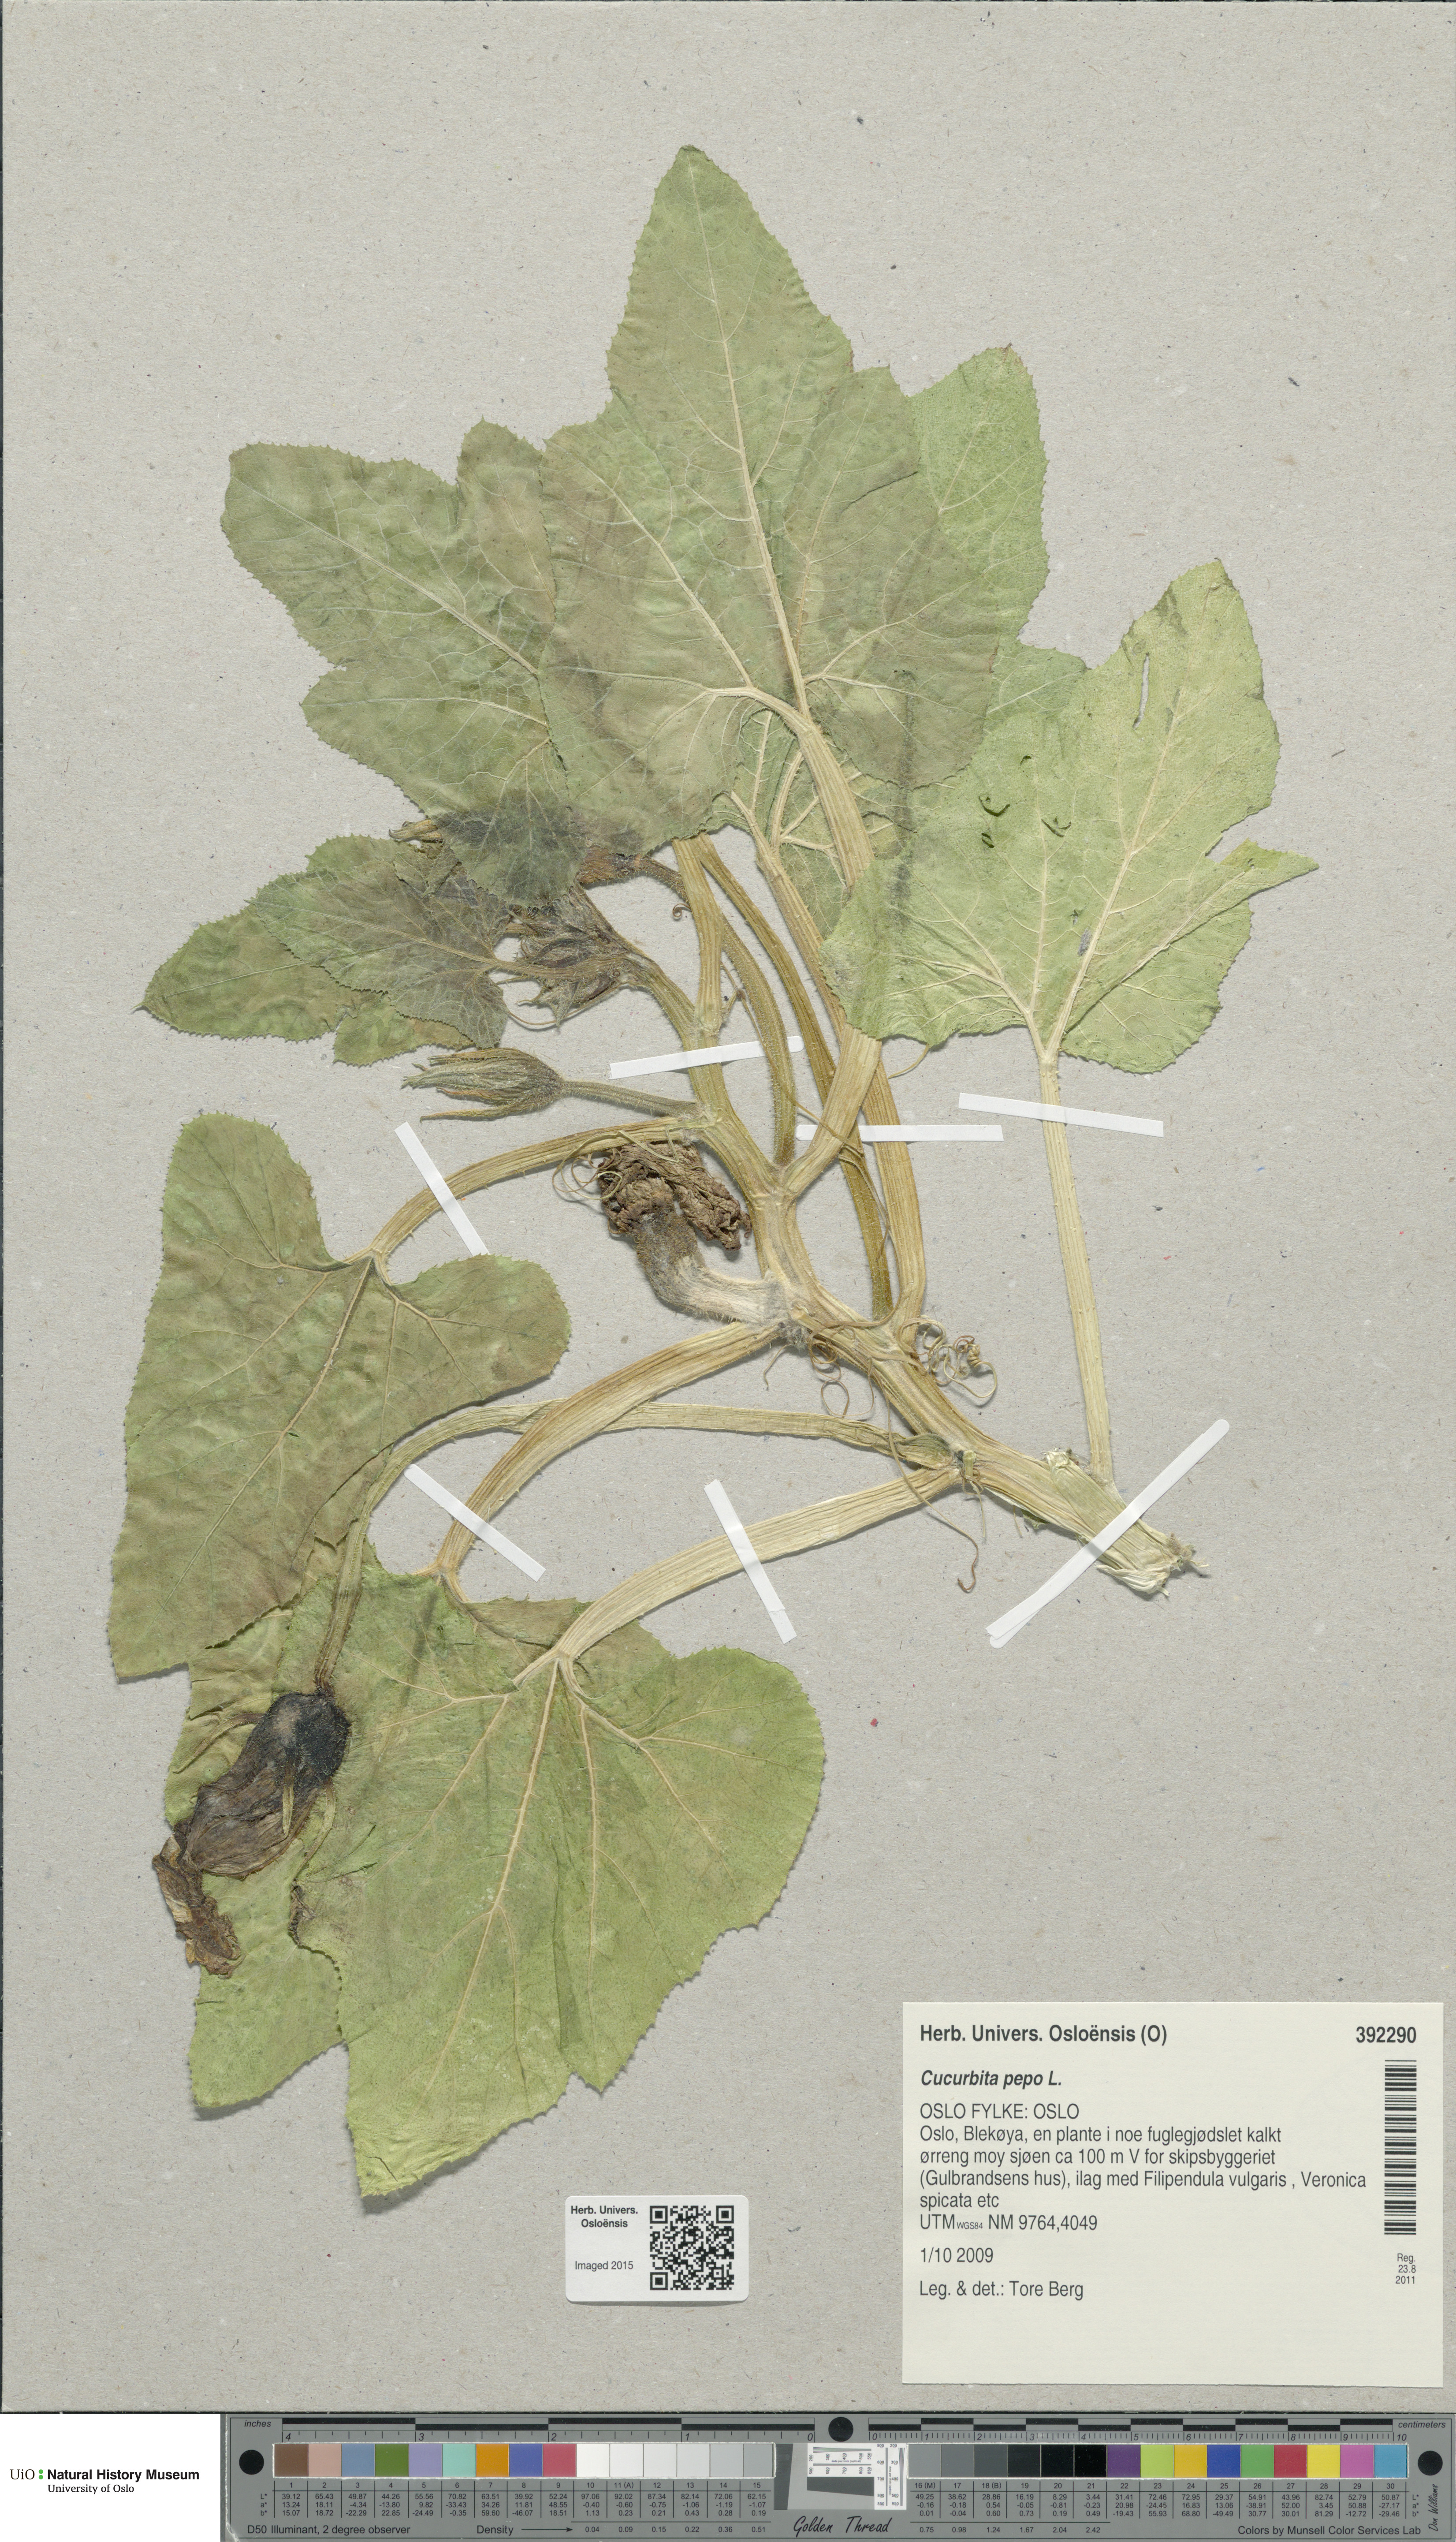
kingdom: Plantae
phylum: Tracheophyta
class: Magnoliopsida
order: Cucurbitales
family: Cucurbitaceae
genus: Cucurbita
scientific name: Cucurbita pepo
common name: Marrow
